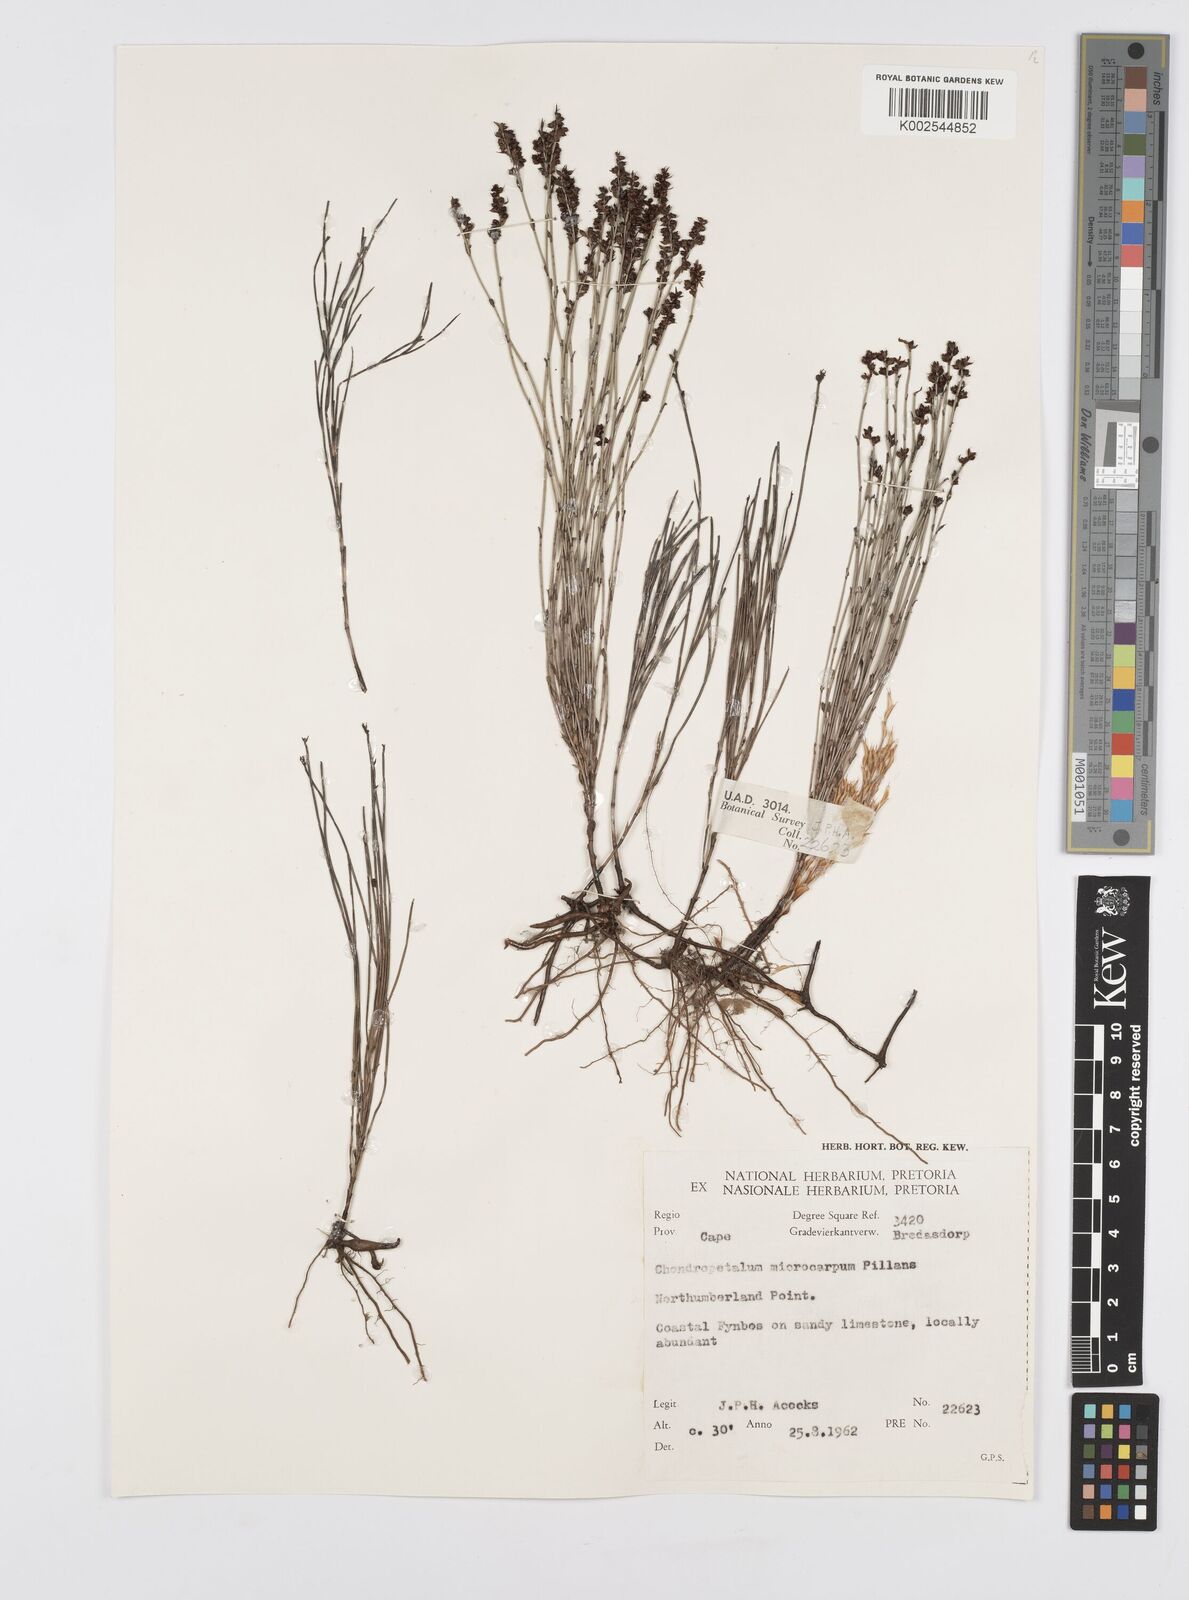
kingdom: Plantae
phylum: Tracheophyta
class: Liliopsida
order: Poales
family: Restionaceae
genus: Elegia
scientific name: Elegia microcarpa
